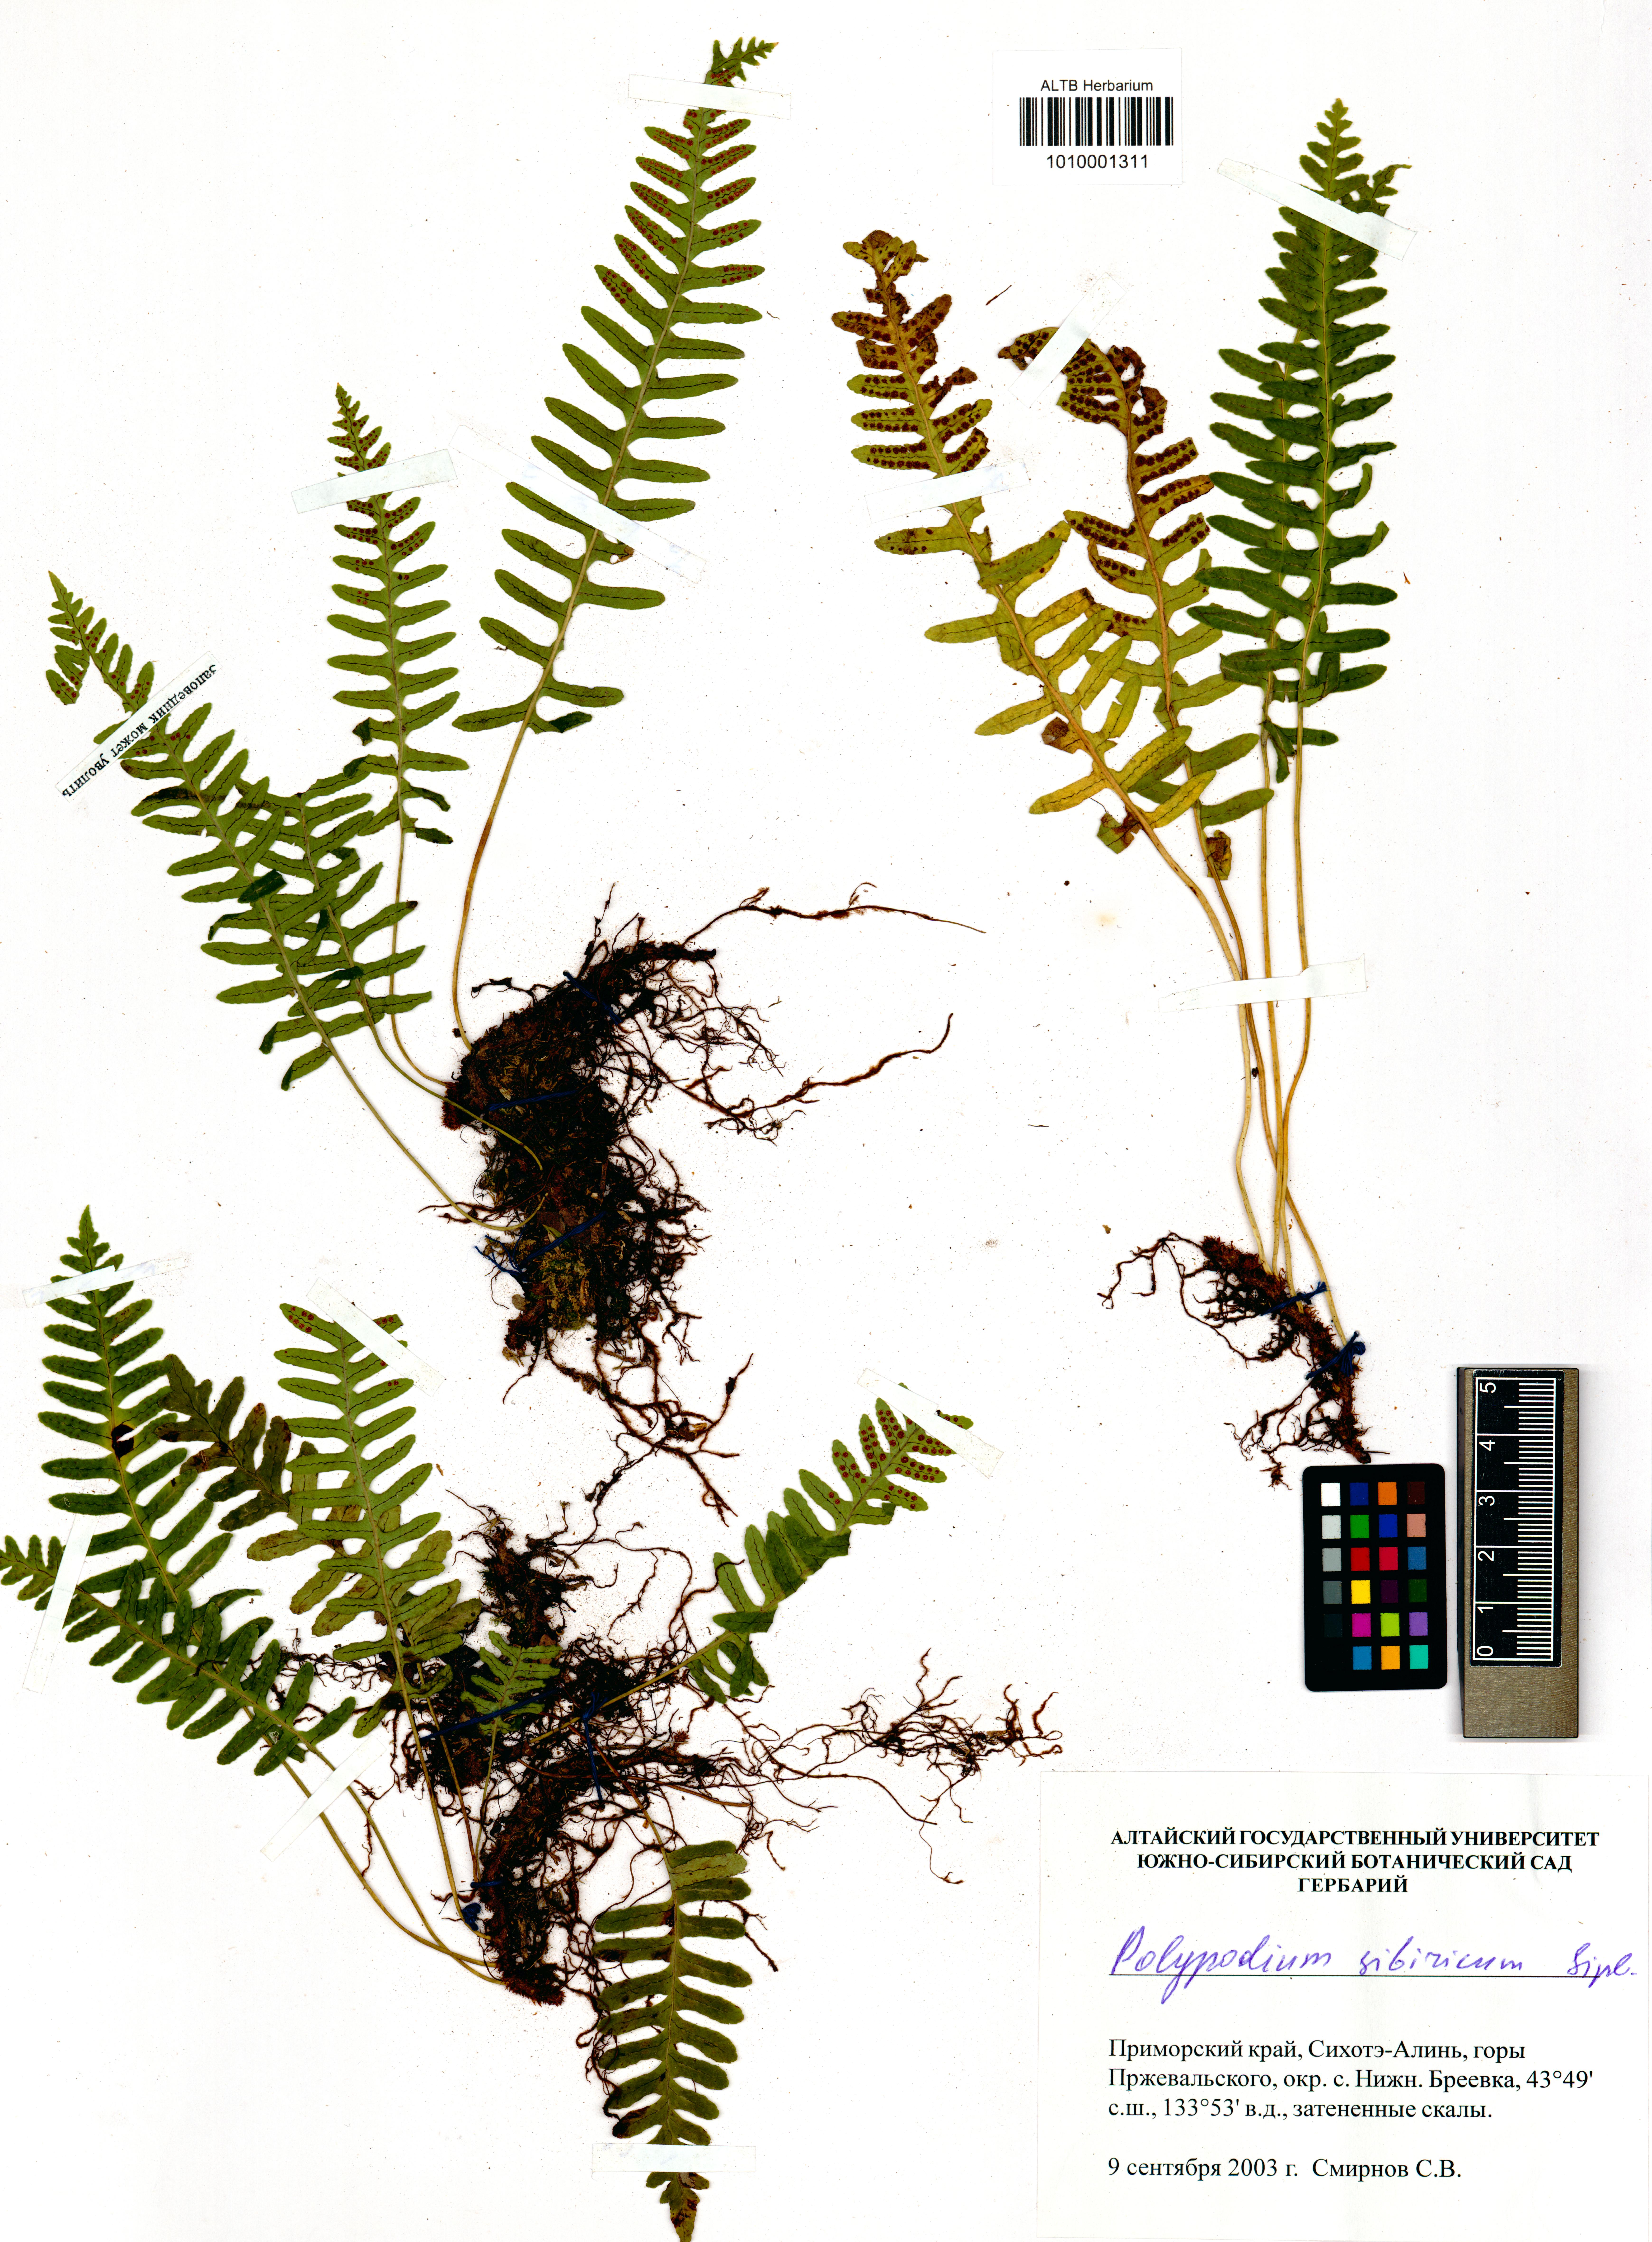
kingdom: Plantae
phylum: Tracheophyta
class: Polypodiopsida
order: Polypodiales
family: Polypodiaceae
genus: Polypodium
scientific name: Polypodium sibiricum
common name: Siberian polypody
